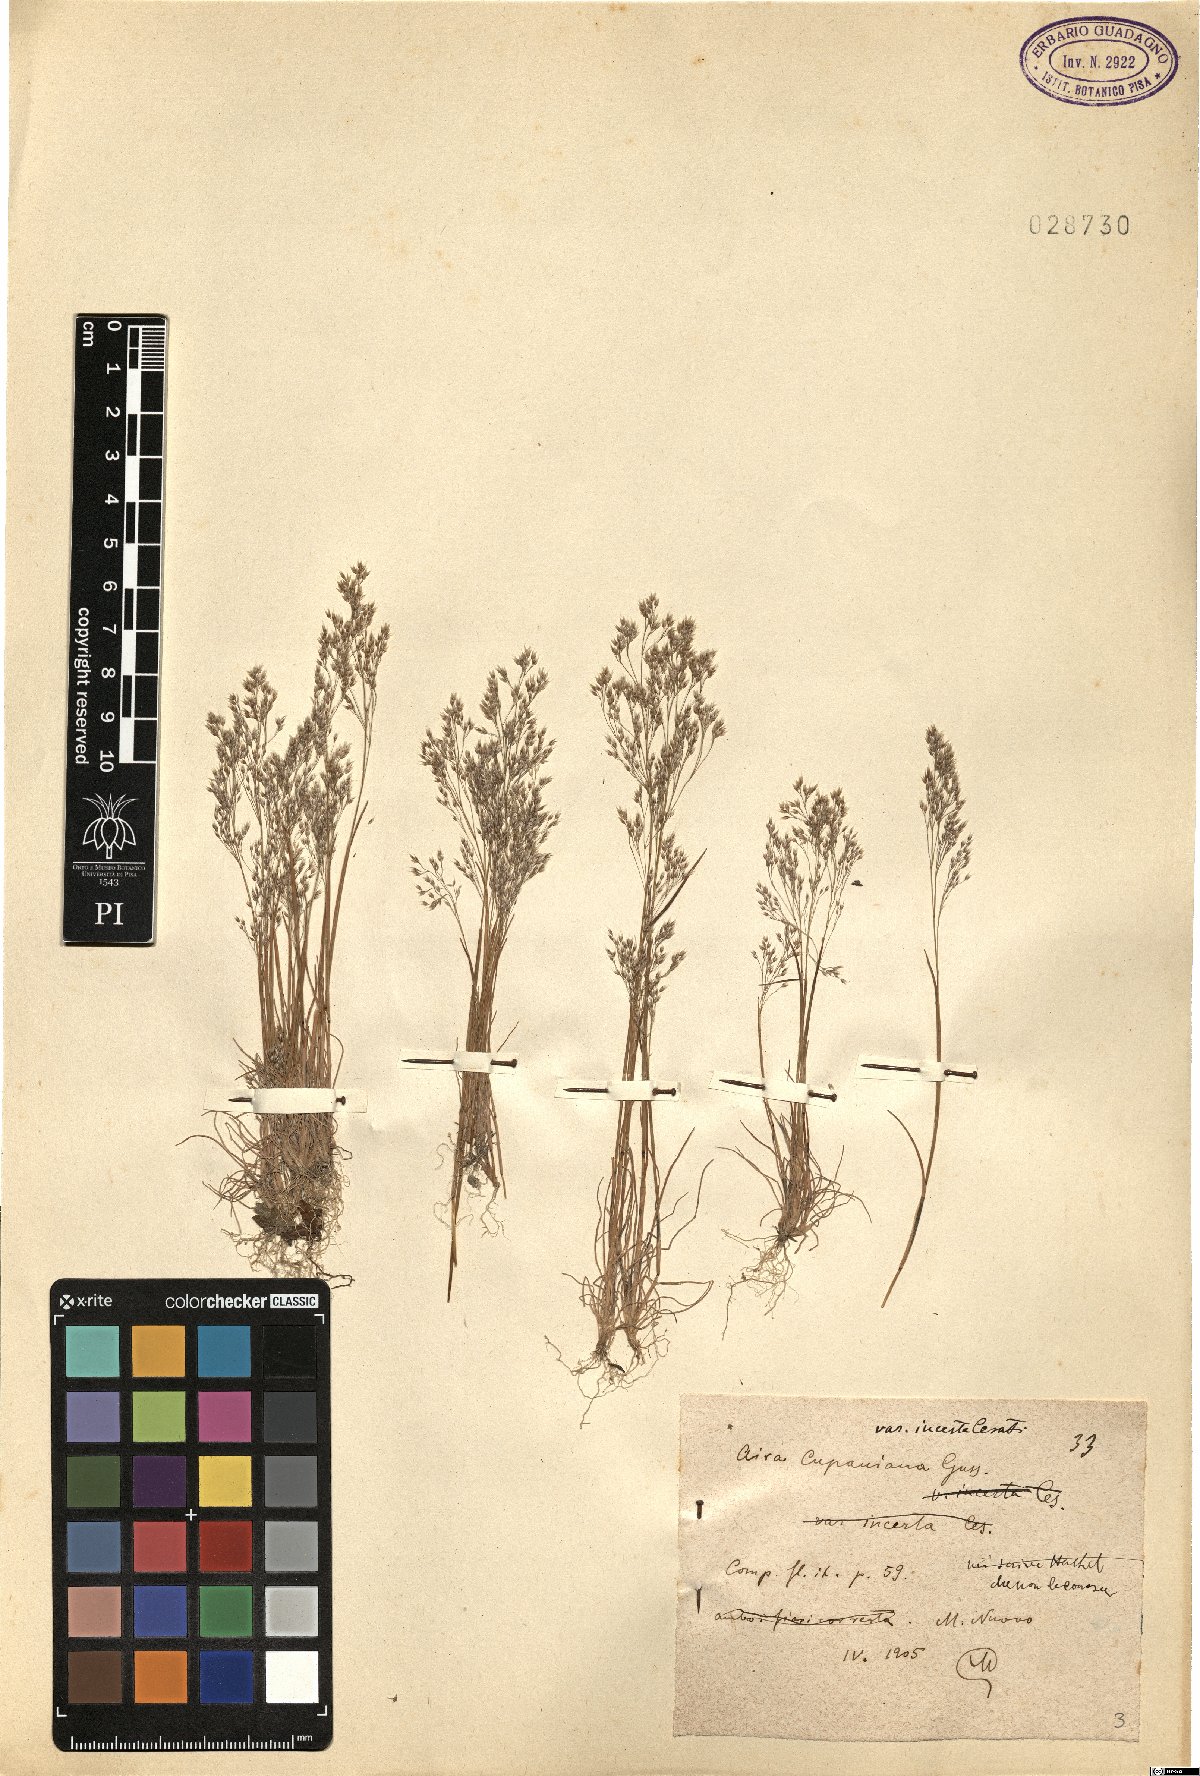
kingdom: Plantae
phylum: Tracheophyta
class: Liliopsida
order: Poales
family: Poaceae
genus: Aira
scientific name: Aira cupaniana
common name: Silver hairgrass
